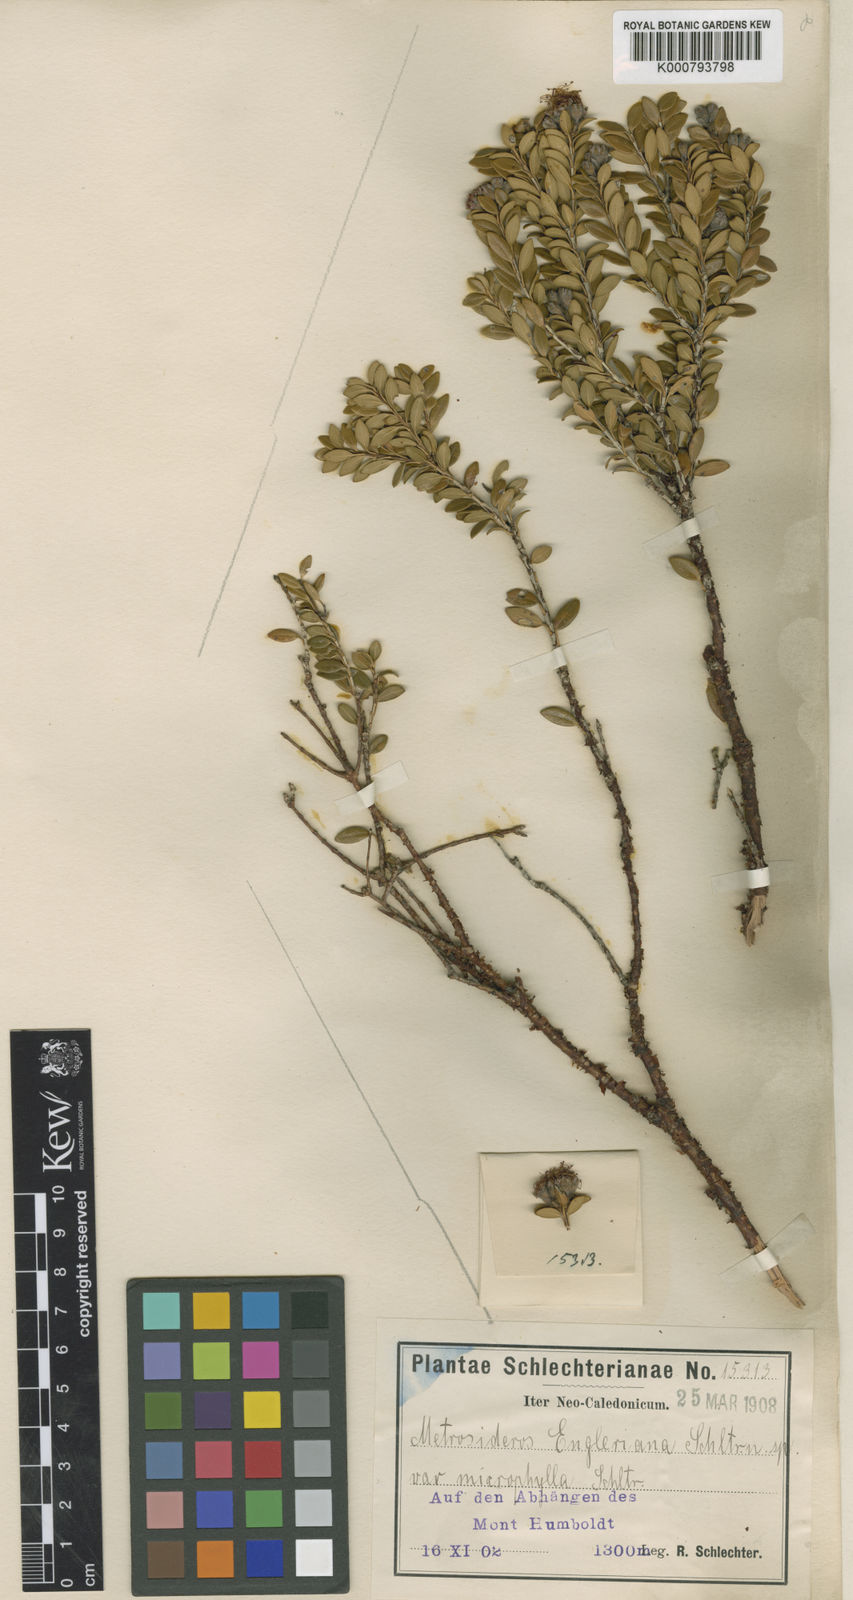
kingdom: Plantae
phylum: Tracheophyta
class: Magnoliopsida
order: Myrtales
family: Myrtaceae
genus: Metrosideros
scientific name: Metrosideros engleriana
